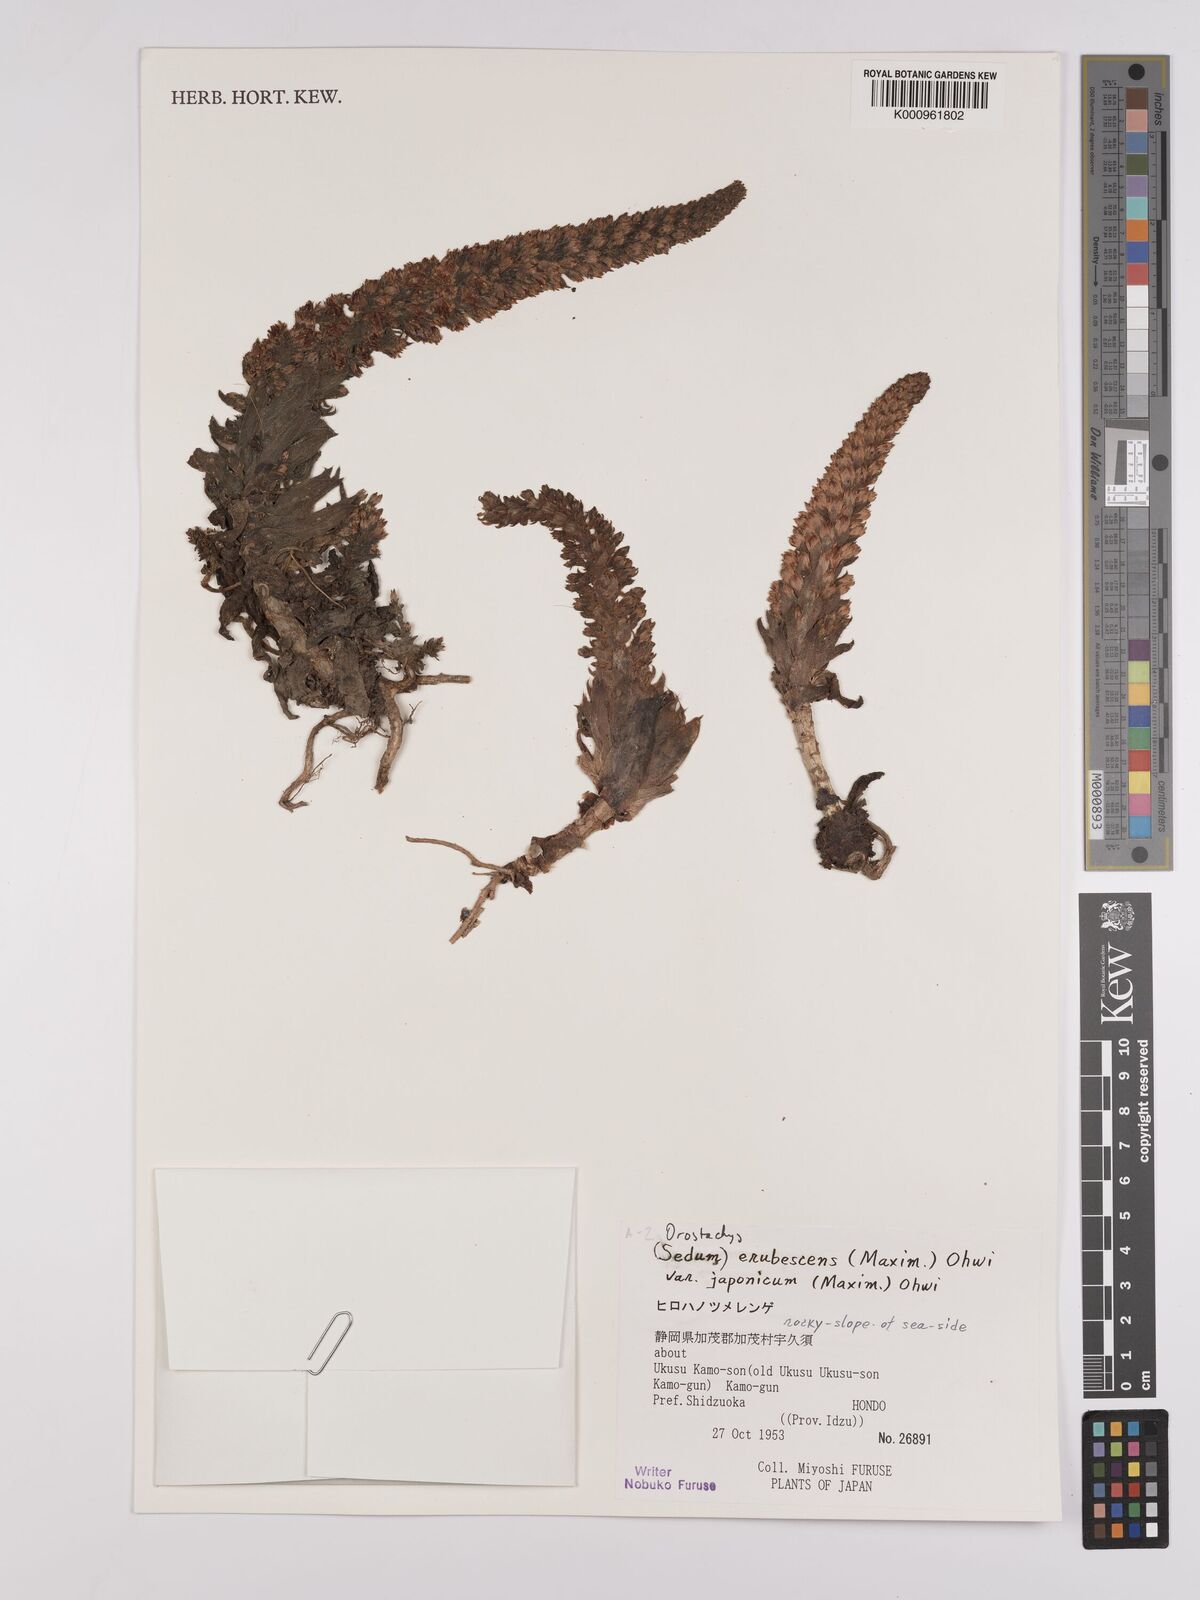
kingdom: Plantae
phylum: Tracheophyta
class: Magnoliopsida
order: Saxifragales
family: Crassulaceae
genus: Orostachys
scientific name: Orostachys japonica
